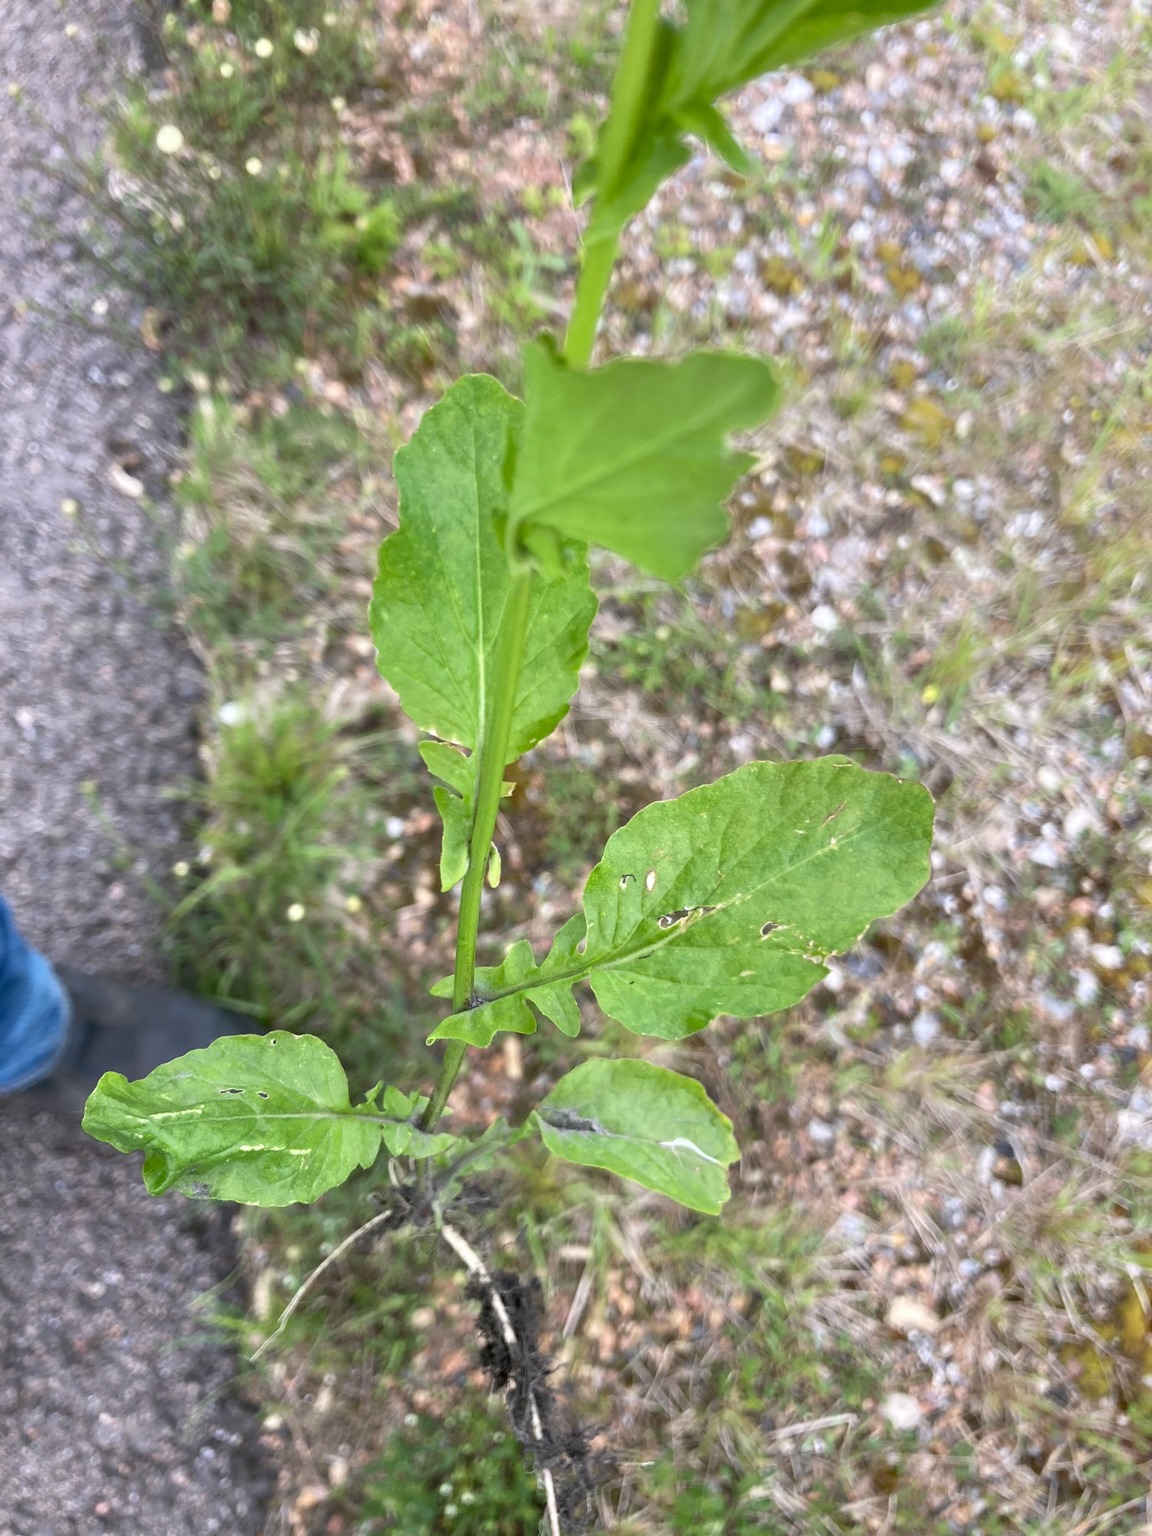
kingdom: Plantae
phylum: Tracheophyta
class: Magnoliopsida
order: Brassicales
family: Brassicaceae
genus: Barbarea
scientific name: Barbarea stricta
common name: Rank vinterkarse
